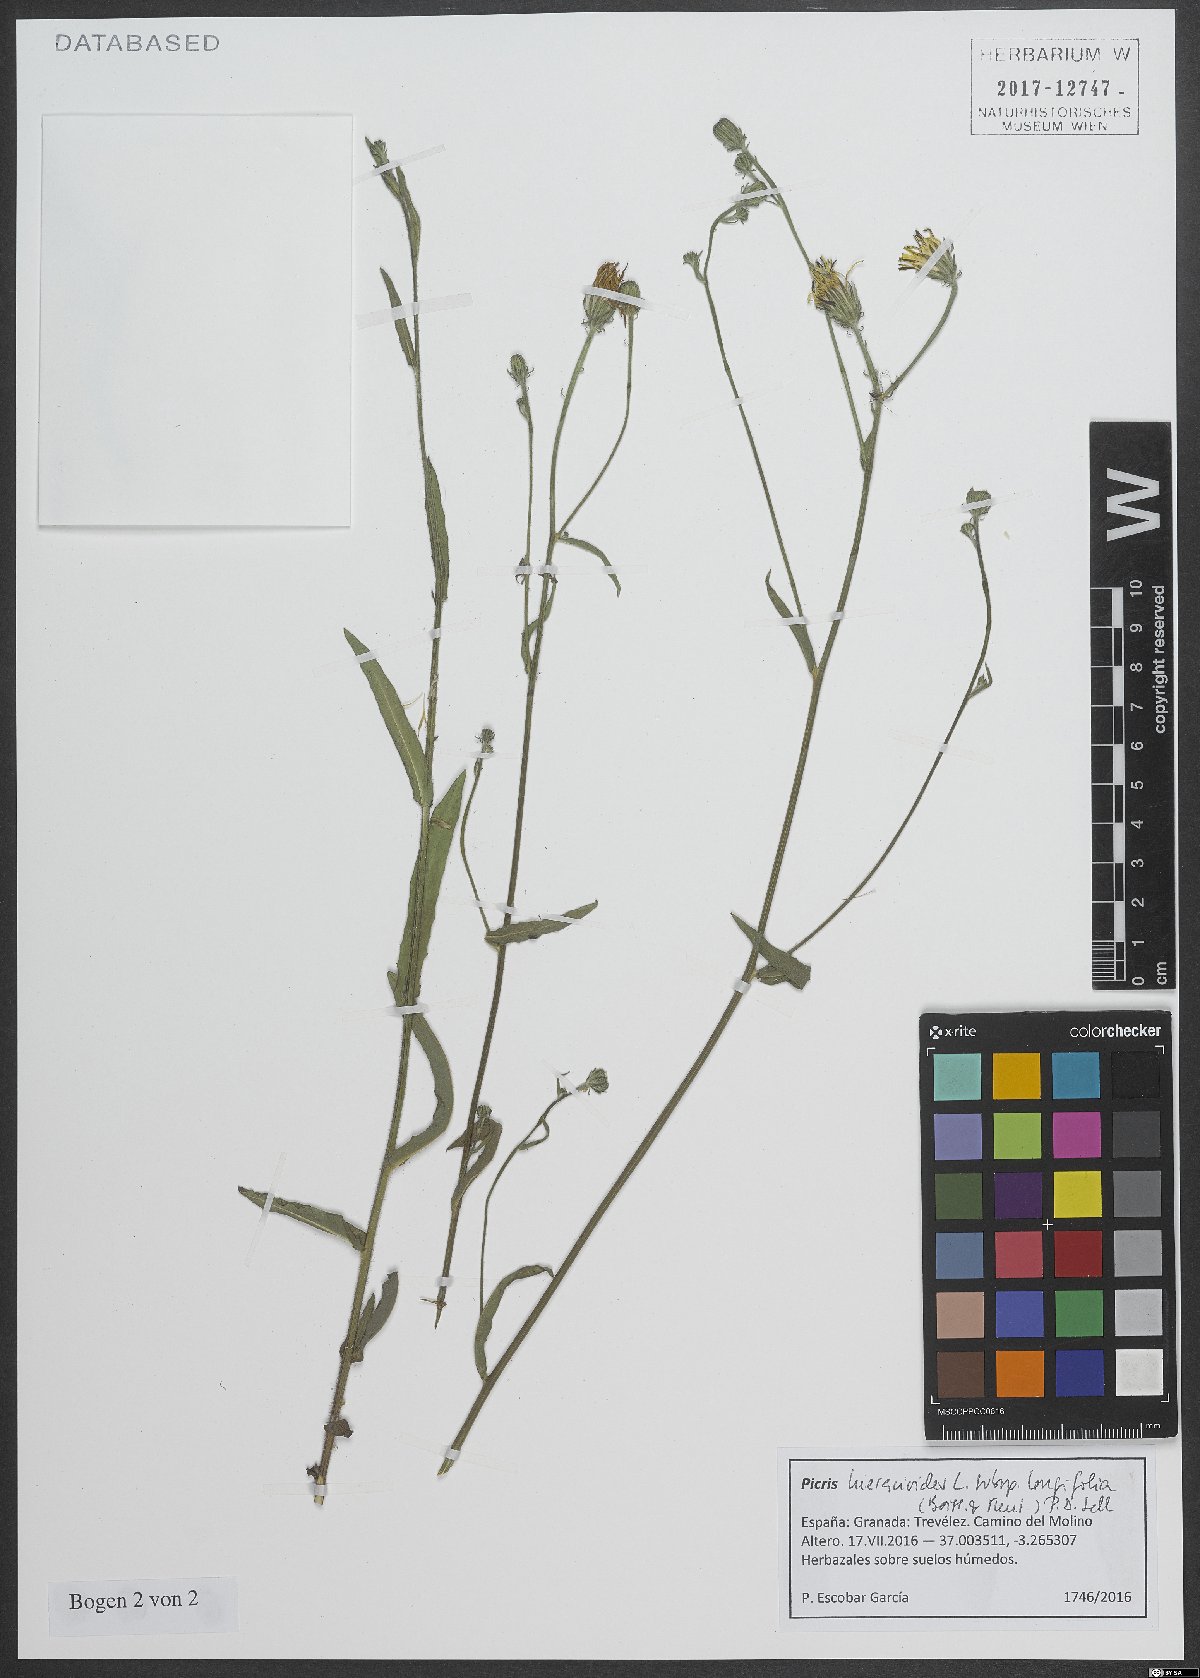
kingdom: Plantae
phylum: Tracheophyta
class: Magnoliopsida
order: Asterales
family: Asteraceae
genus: Picris
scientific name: Picris hieracioides
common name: Hawkweed oxtongue
